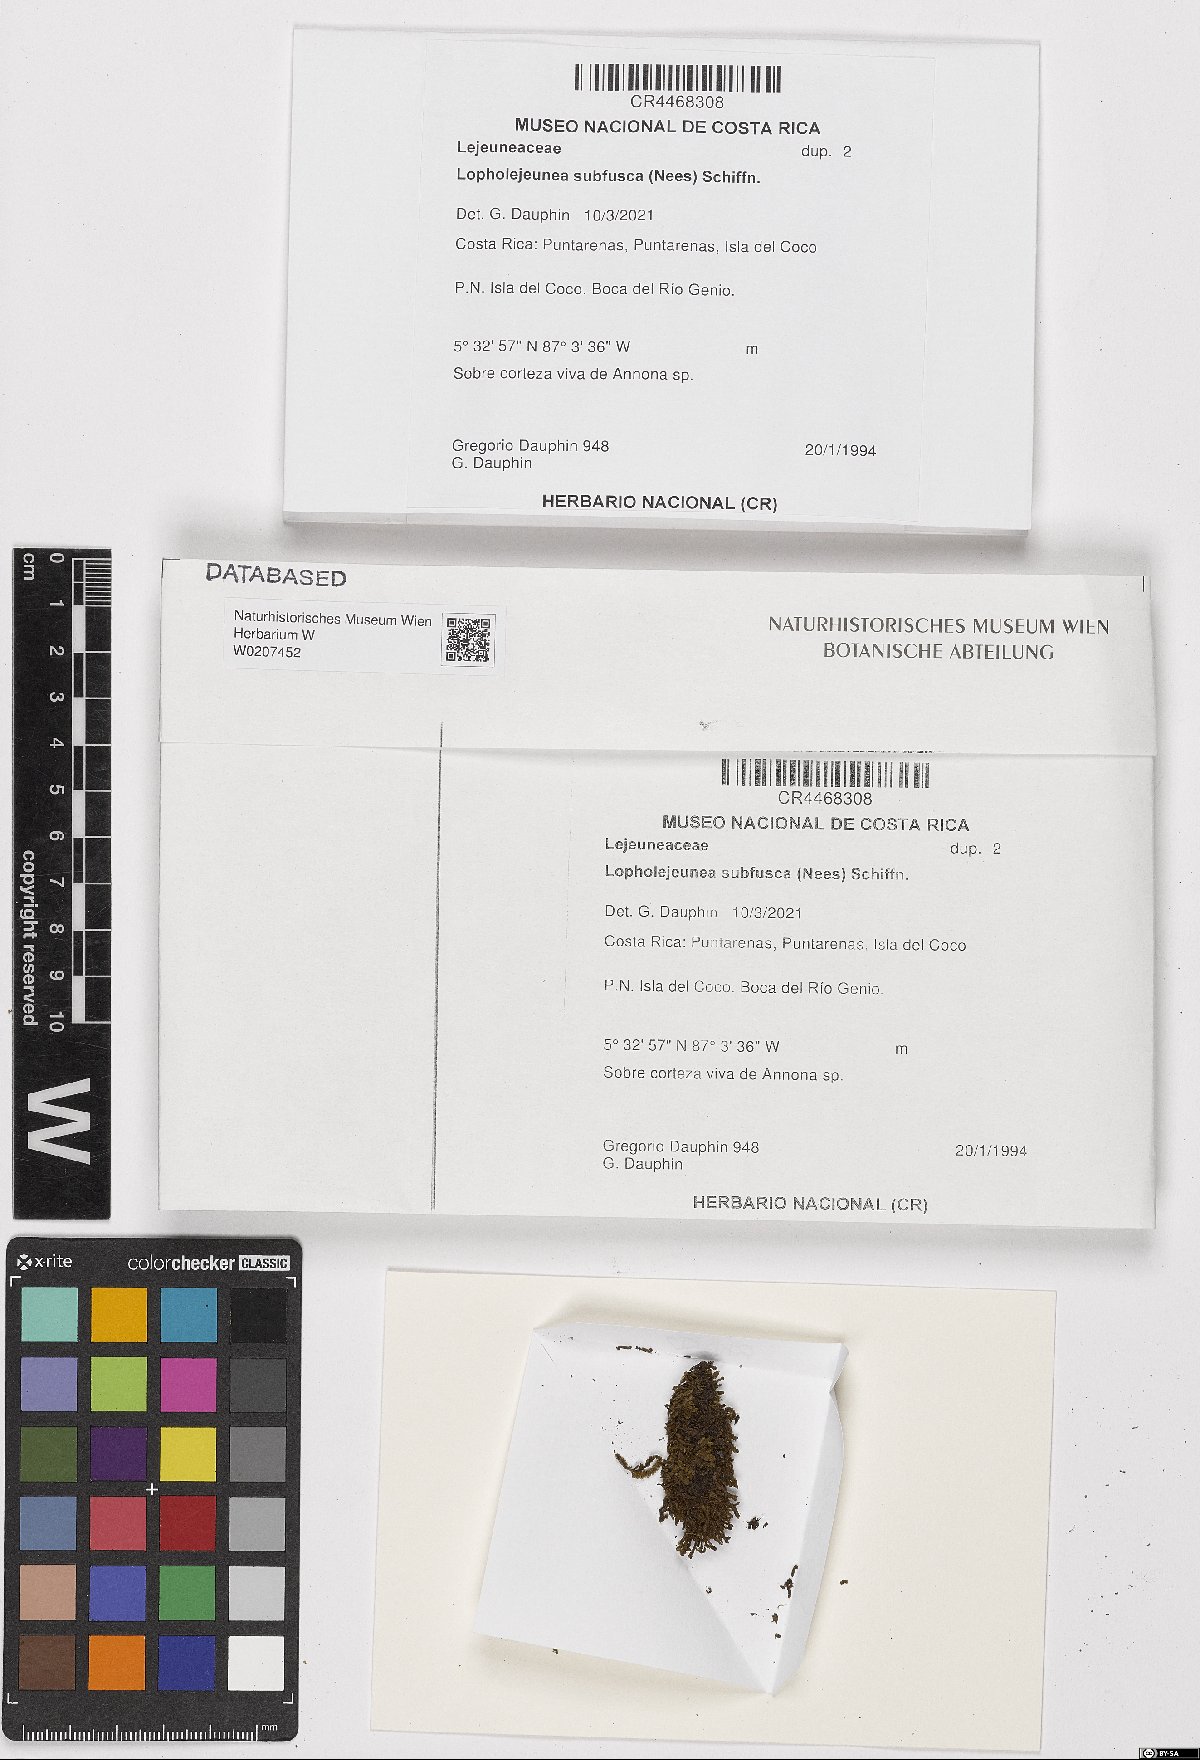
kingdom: Plantae
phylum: Marchantiophyta
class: Jungermanniopsida
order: Porellales
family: Lejeuneaceae
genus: Lopholejeunea
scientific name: Lopholejeunea subfusca
